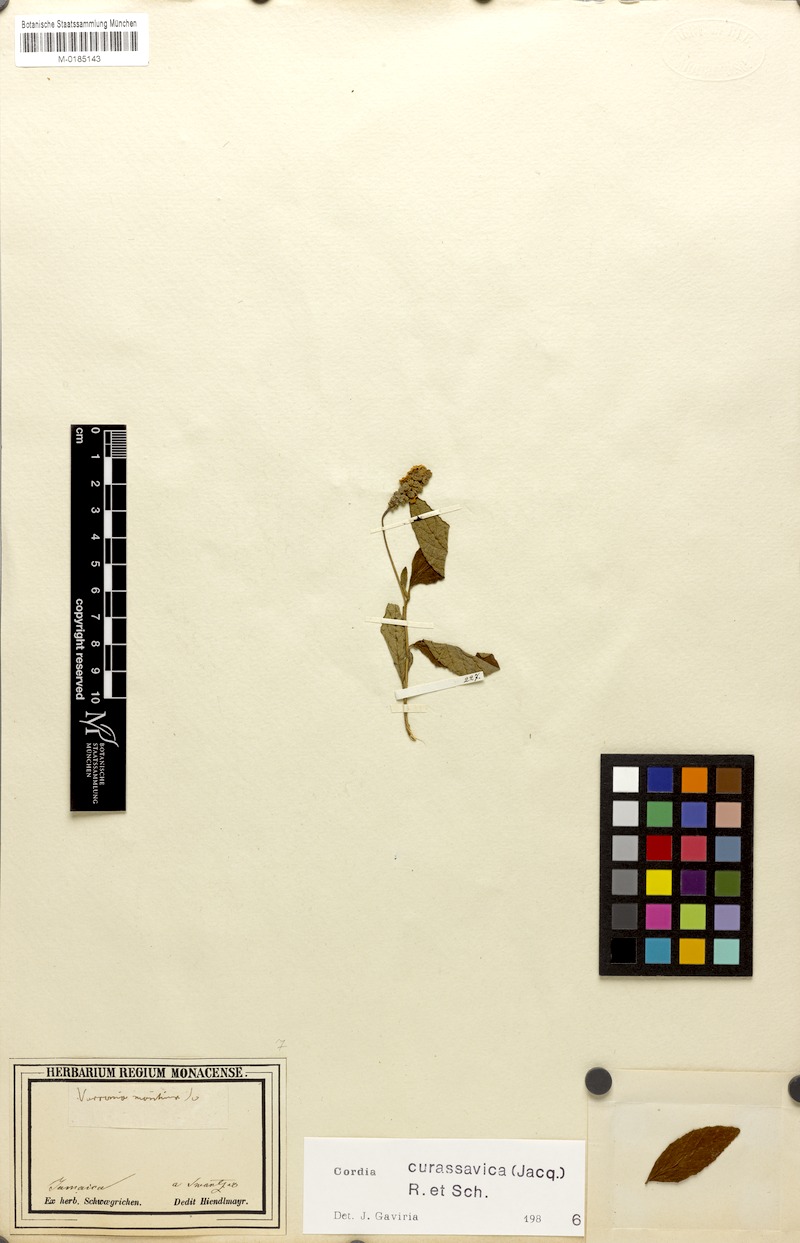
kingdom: Plantae
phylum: Tracheophyta
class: Magnoliopsida
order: Boraginales
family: Cordiaceae
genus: Varronia
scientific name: Varronia curassavica
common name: Black sage
